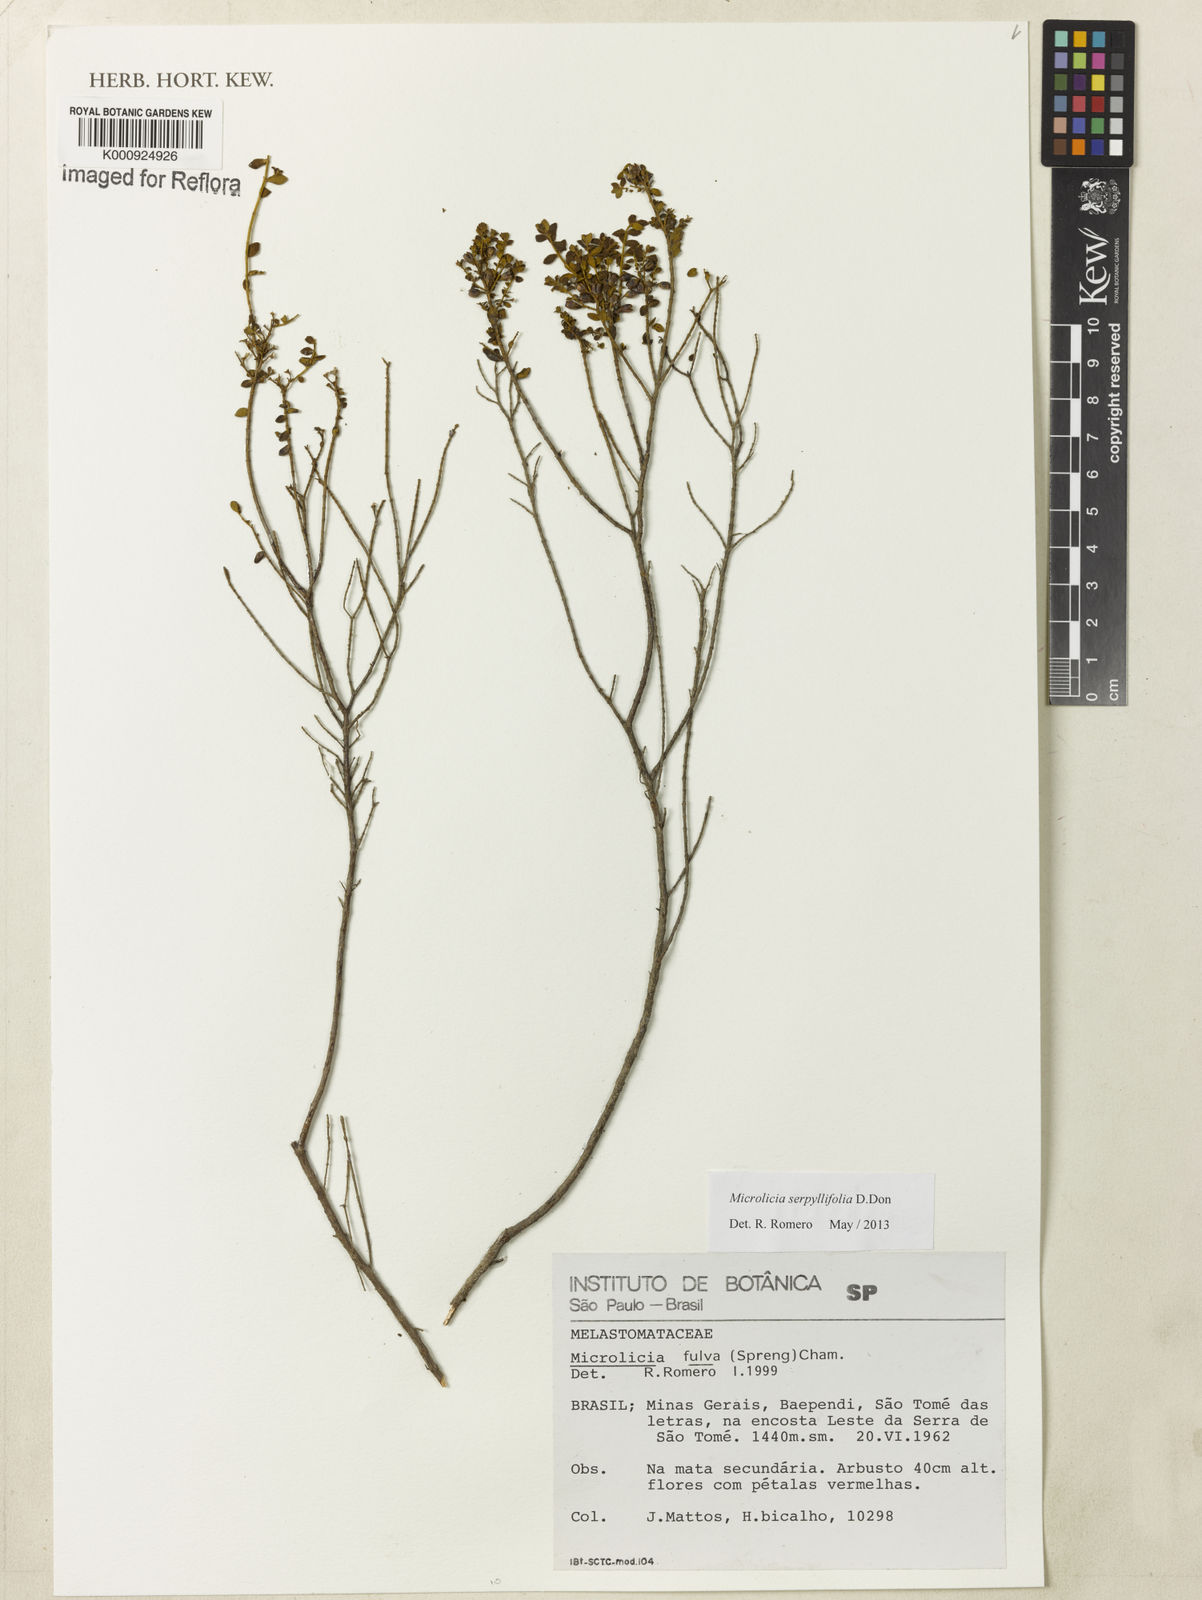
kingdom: Plantae
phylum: Tracheophyta
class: Magnoliopsida
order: Myrtales
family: Melastomataceae
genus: Microlicia
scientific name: Microlicia fulva
